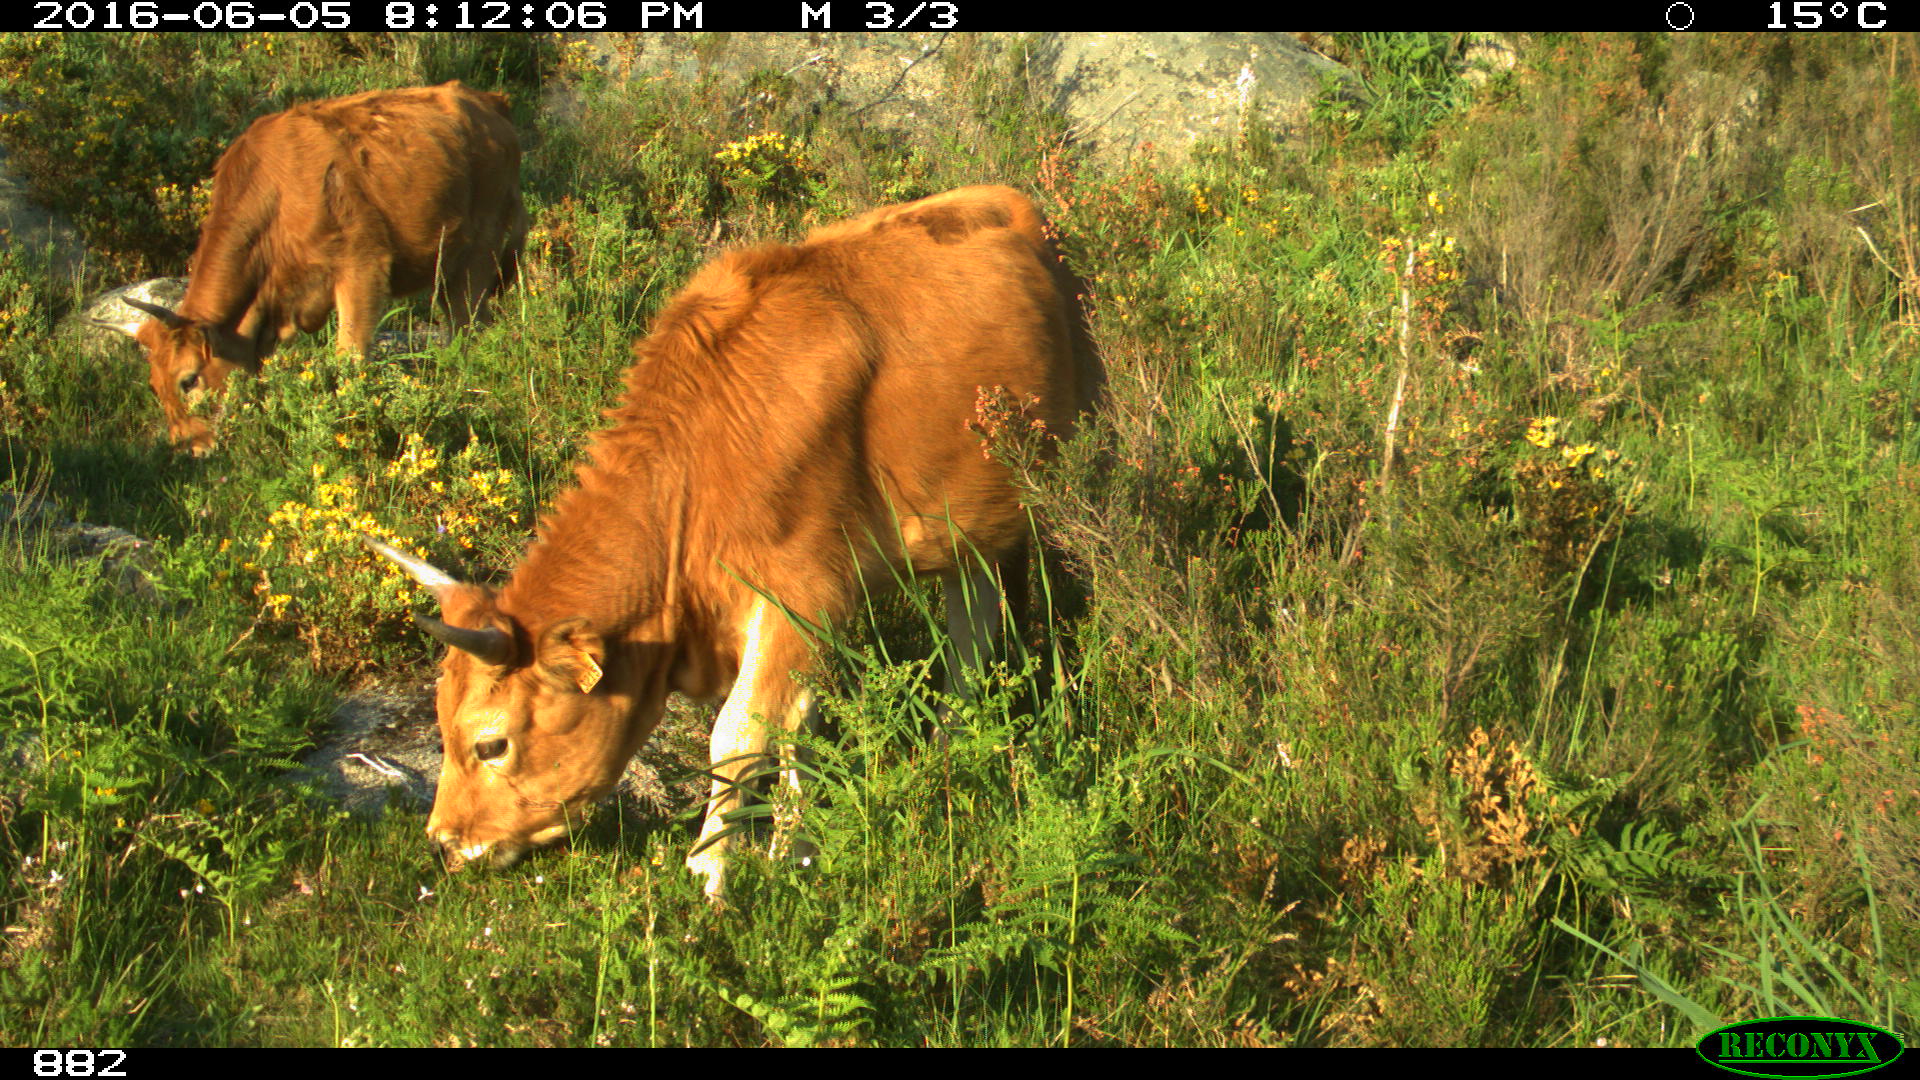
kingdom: Animalia
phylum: Chordata
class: Mammalia
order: Artiodactyla
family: Bovidae
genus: Bos
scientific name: Bos taurus
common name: Domesticated cattle
